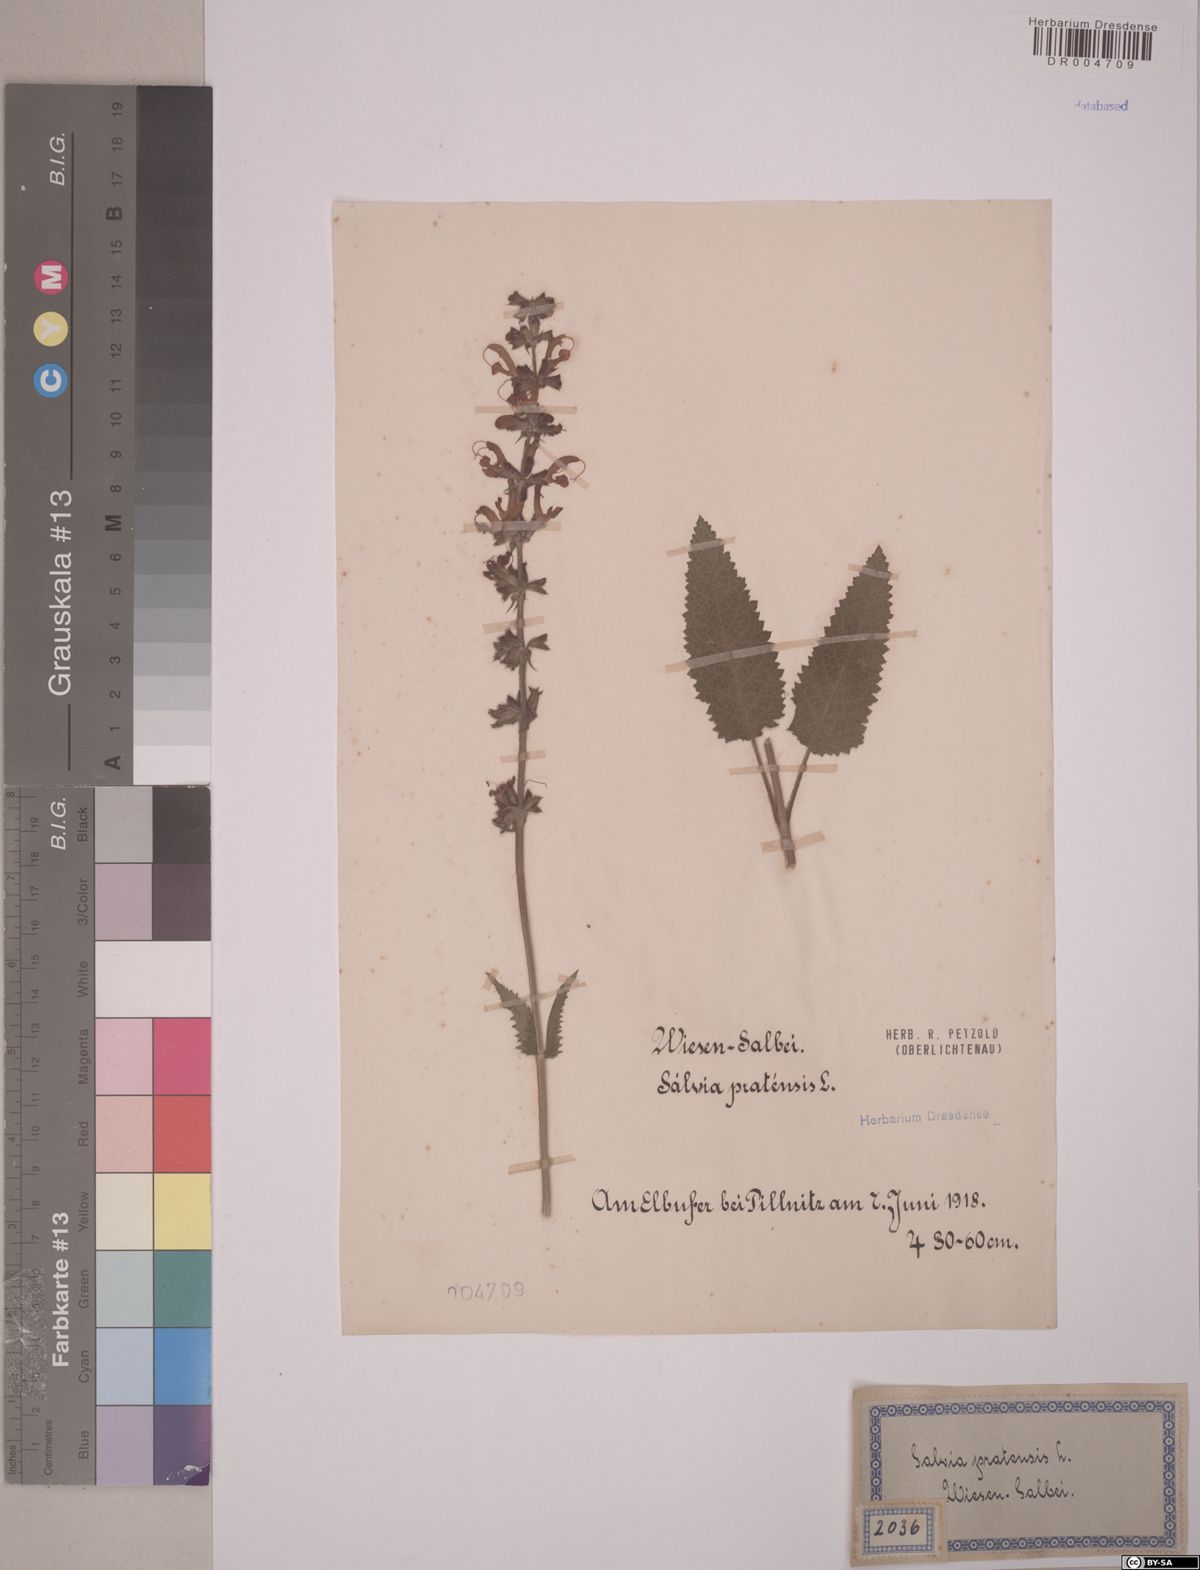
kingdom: Plantae
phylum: Tracheophyta
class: Magnoliopsida
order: Lamiales
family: Lamiaceae
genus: Salvia
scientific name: Salvia pratensis
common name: Meadow sage
